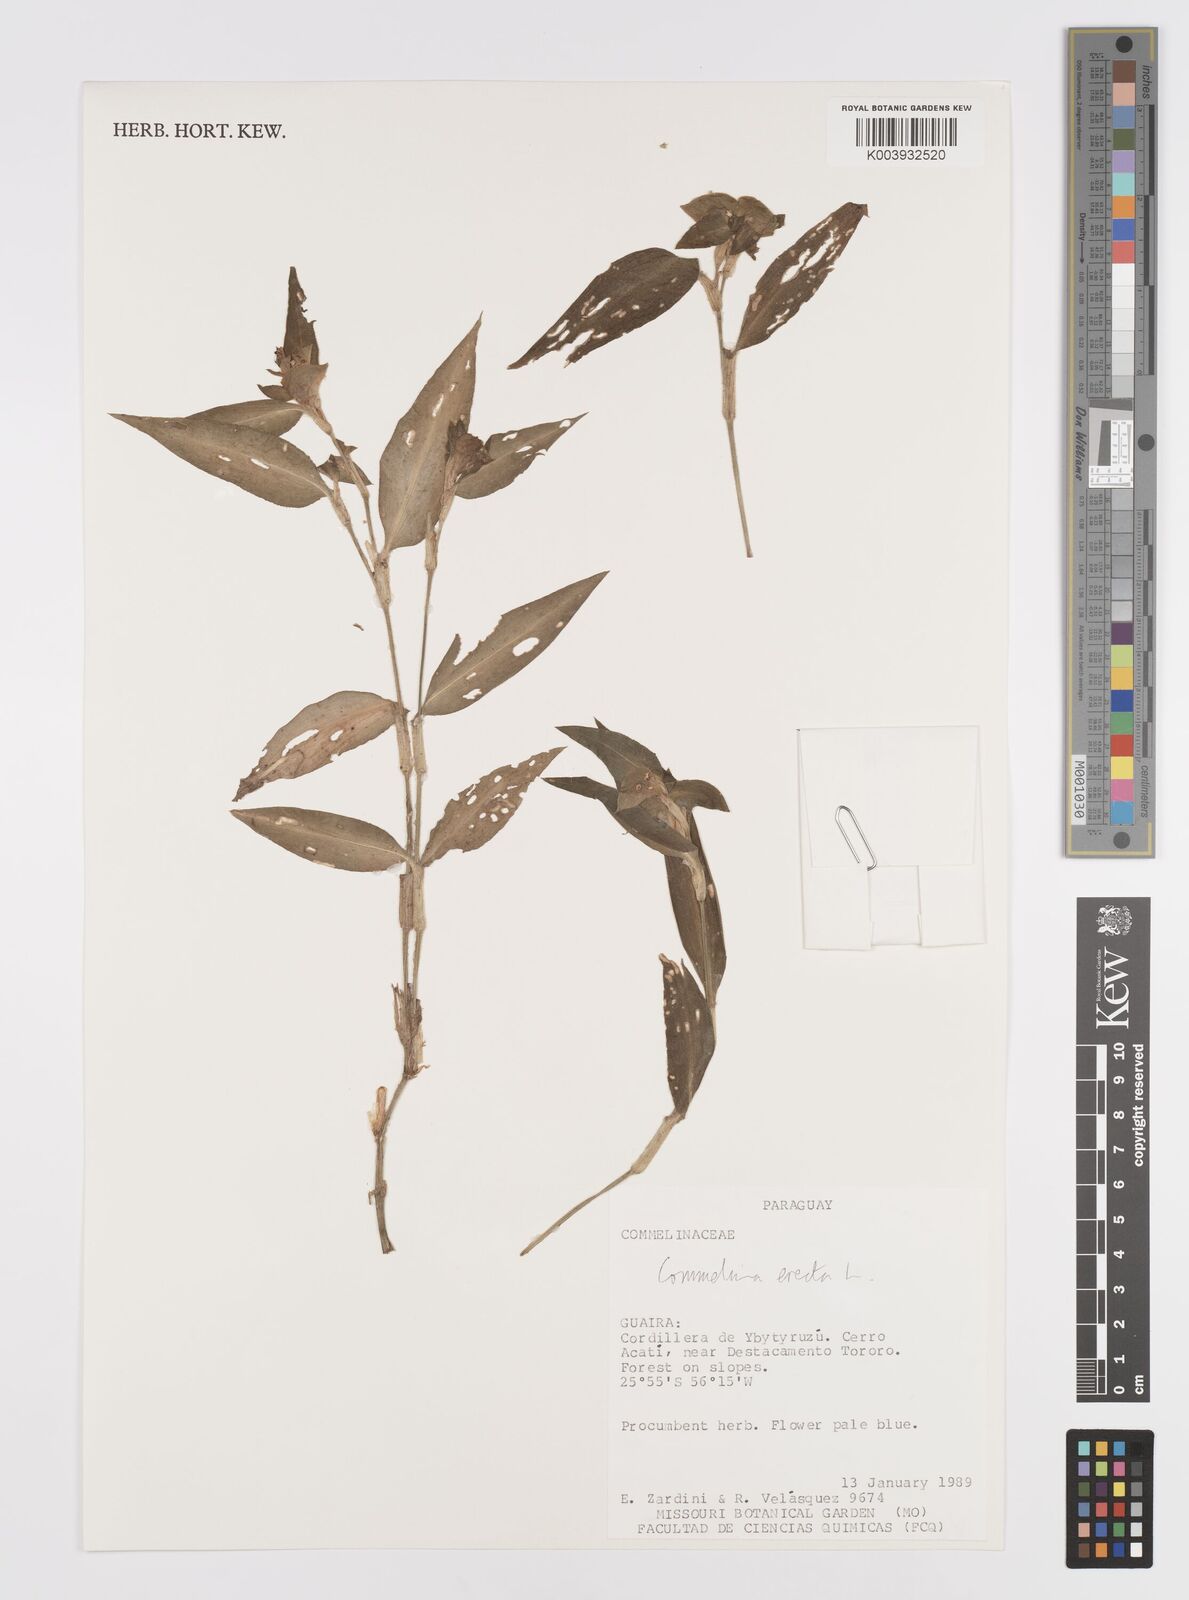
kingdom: Plantae
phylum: Tracheophyta
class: Liliopsida
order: Commelinales
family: Commelinaceae
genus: Commelina
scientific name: Commelina erecta
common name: Blousel blommetjie
